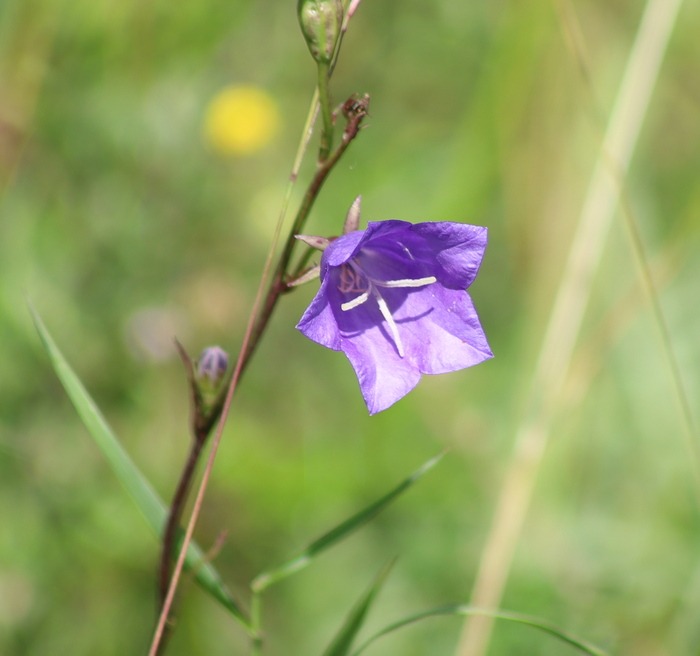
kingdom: Plantae
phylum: Tracheophyta
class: Magnoliopsida
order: Asterales
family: Campanulaceae
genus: Campanula
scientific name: Campanula persicifolia
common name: Smalbladet klokke
